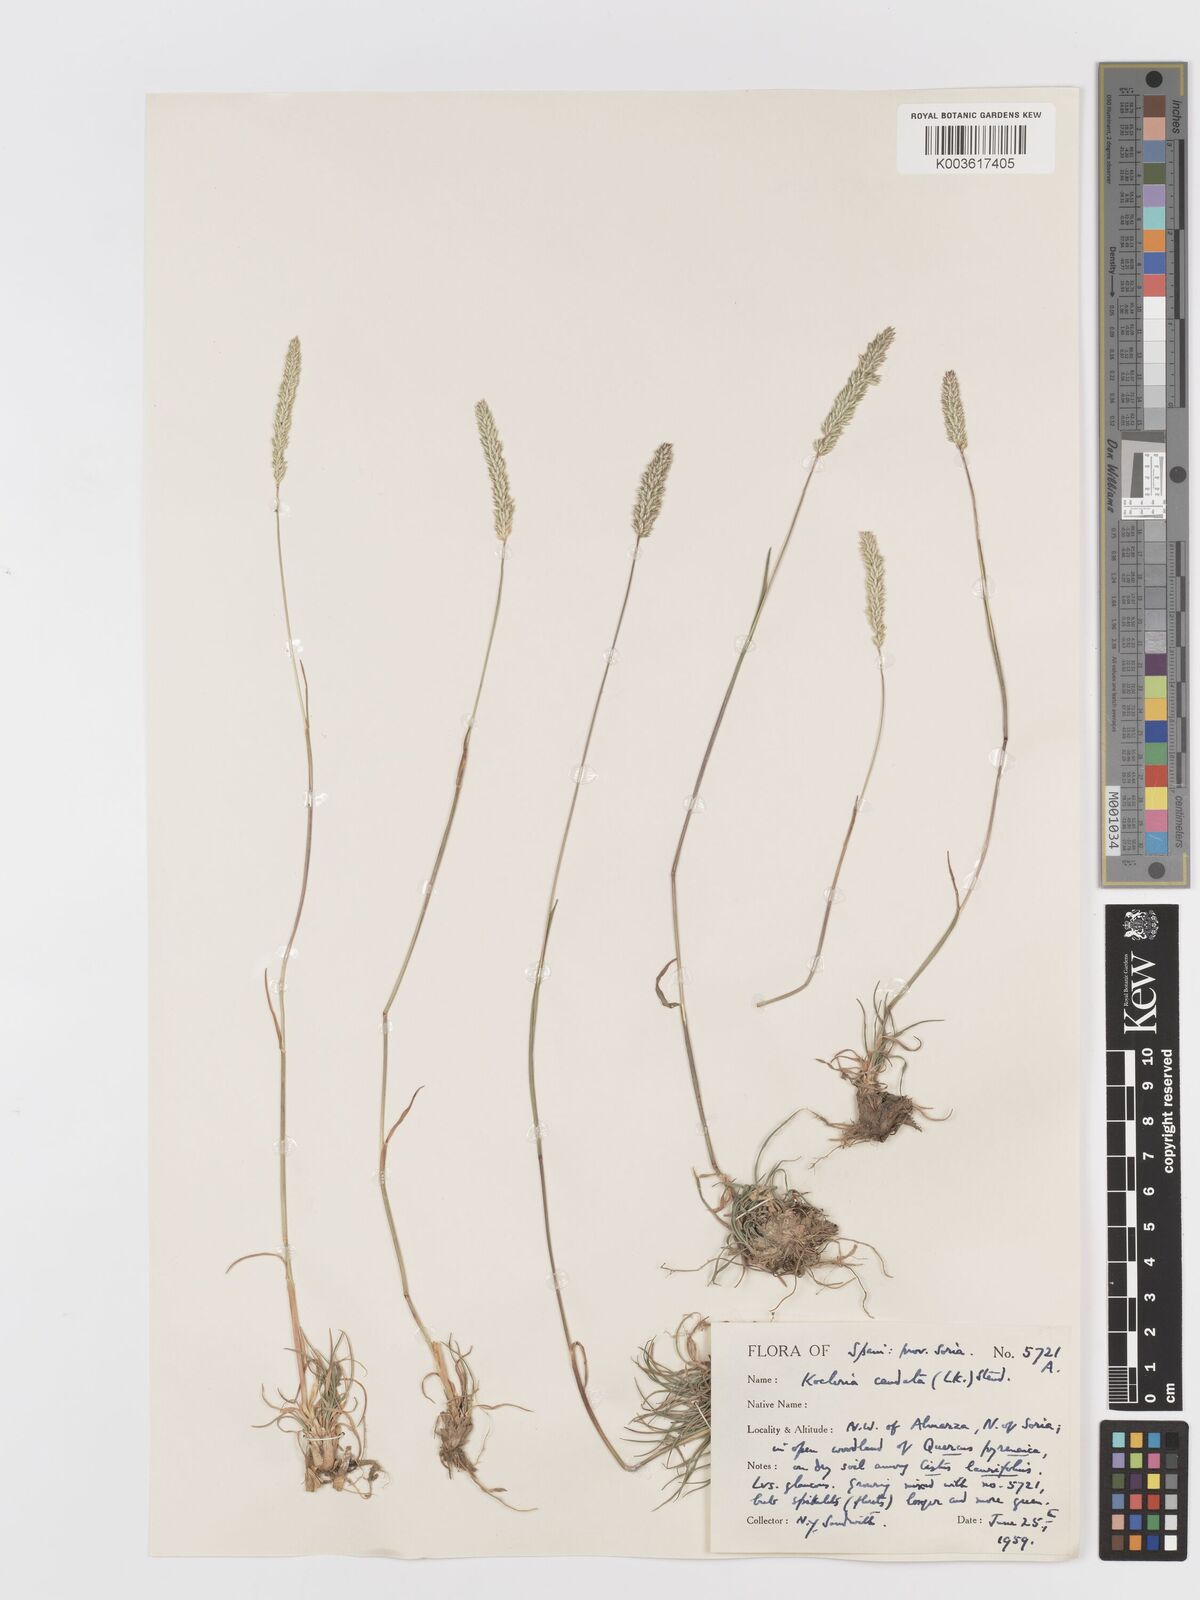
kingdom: Plantae
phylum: Tracheophyta
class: Liliopsida
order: Poales
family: Poaceae
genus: Koeleria
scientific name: Koeleria crassipes
